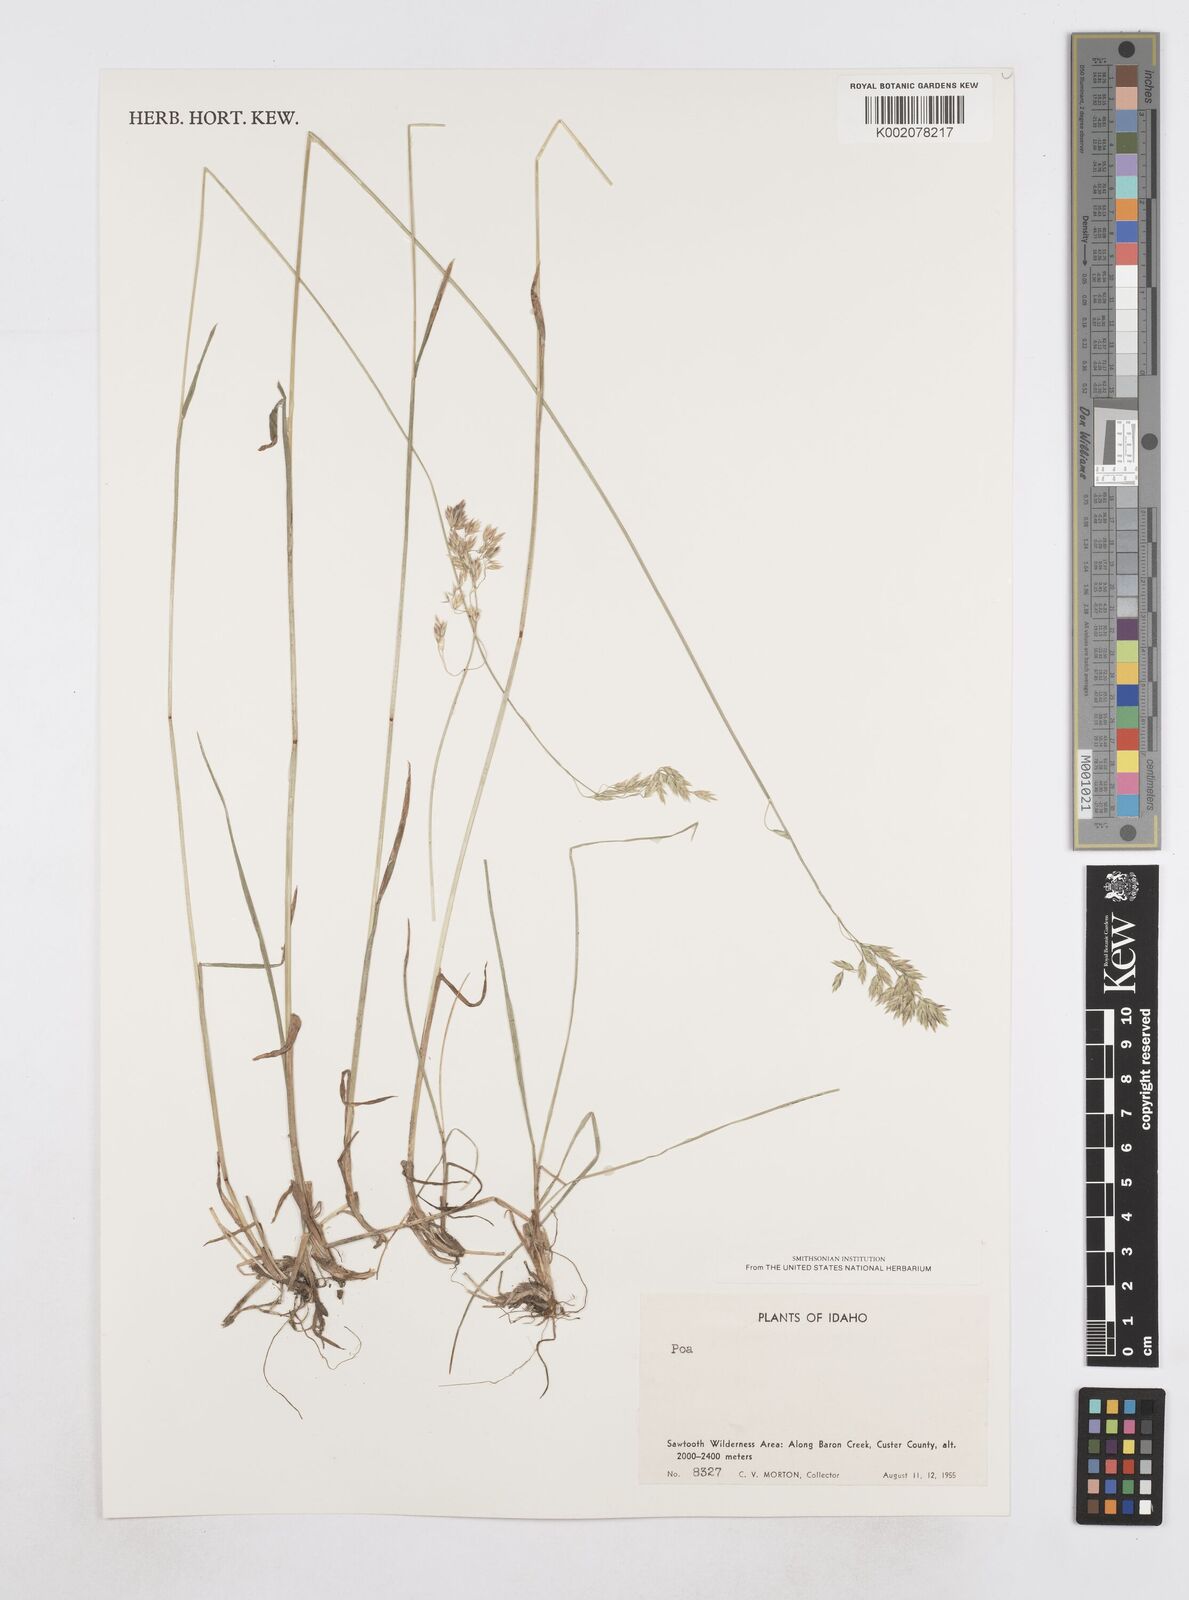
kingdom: Plantae
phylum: Tracheophyta
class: Liliopsida
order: Poales
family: Poaceae
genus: Poa
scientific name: Poa
